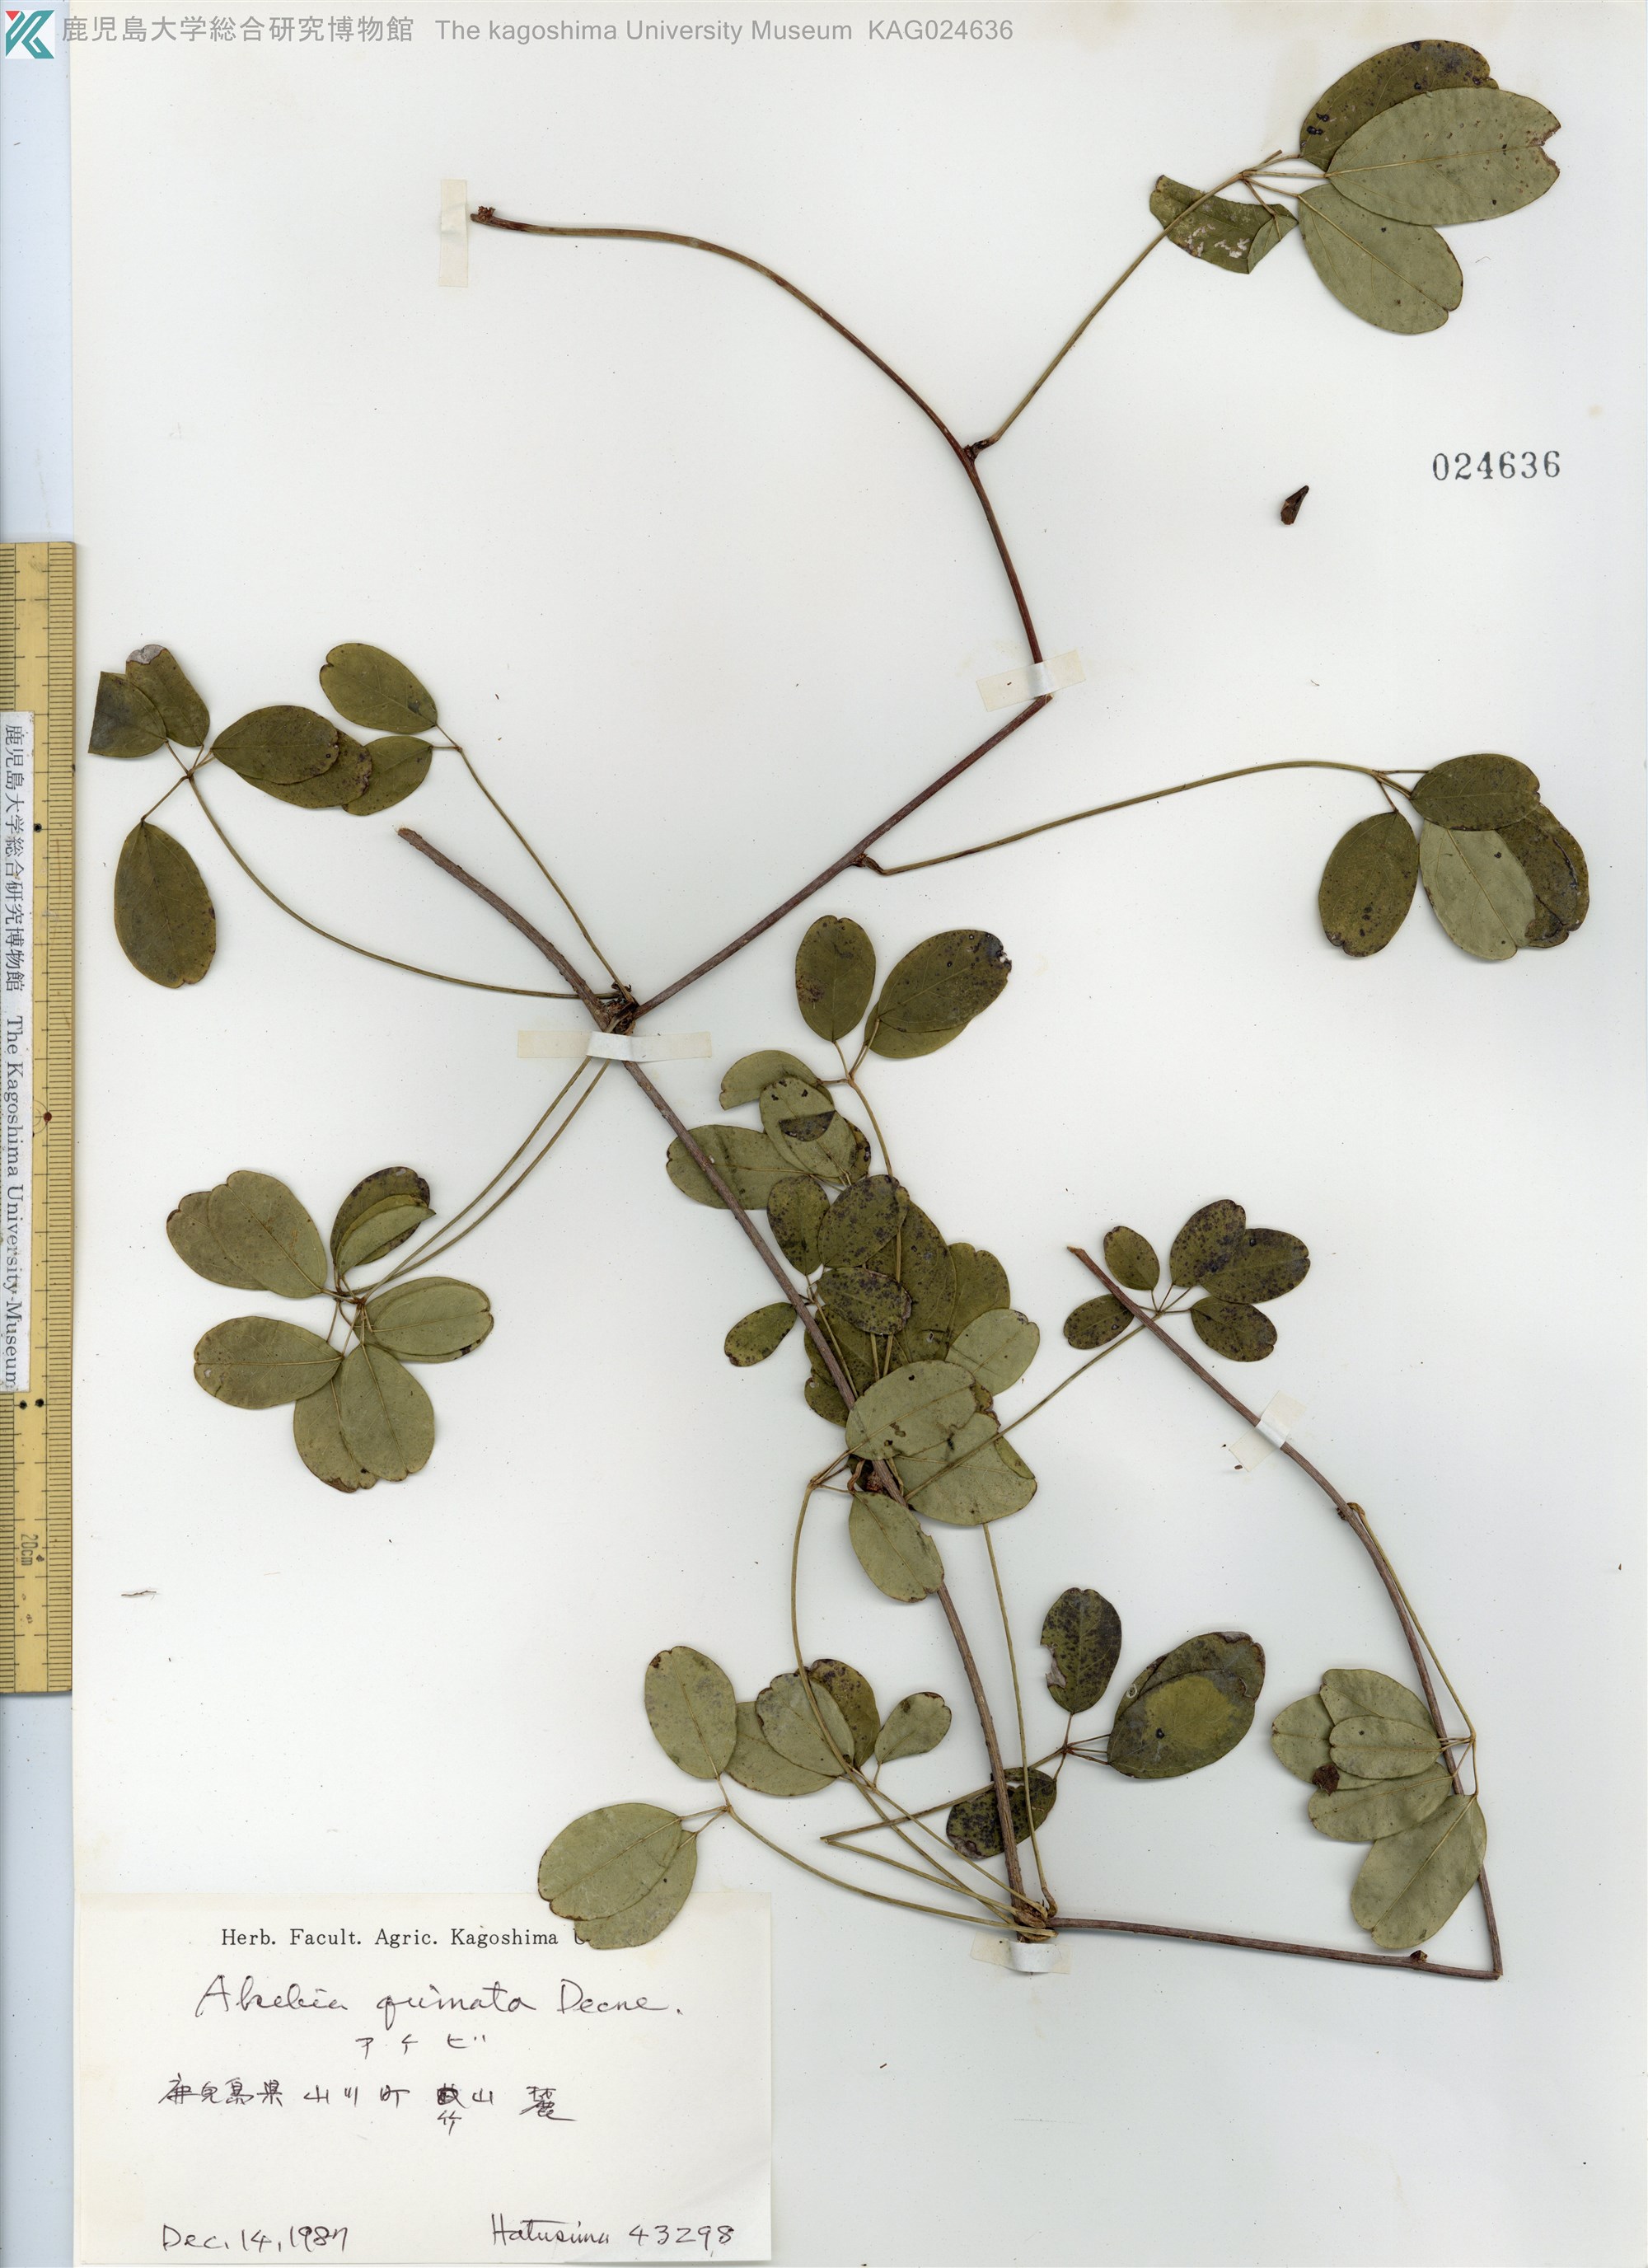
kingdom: Plantae
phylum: Tracheophyta
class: Magnoliopsida
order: Ranunculales
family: Lardizabalaceae
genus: Akebia
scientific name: Akebia quinata
